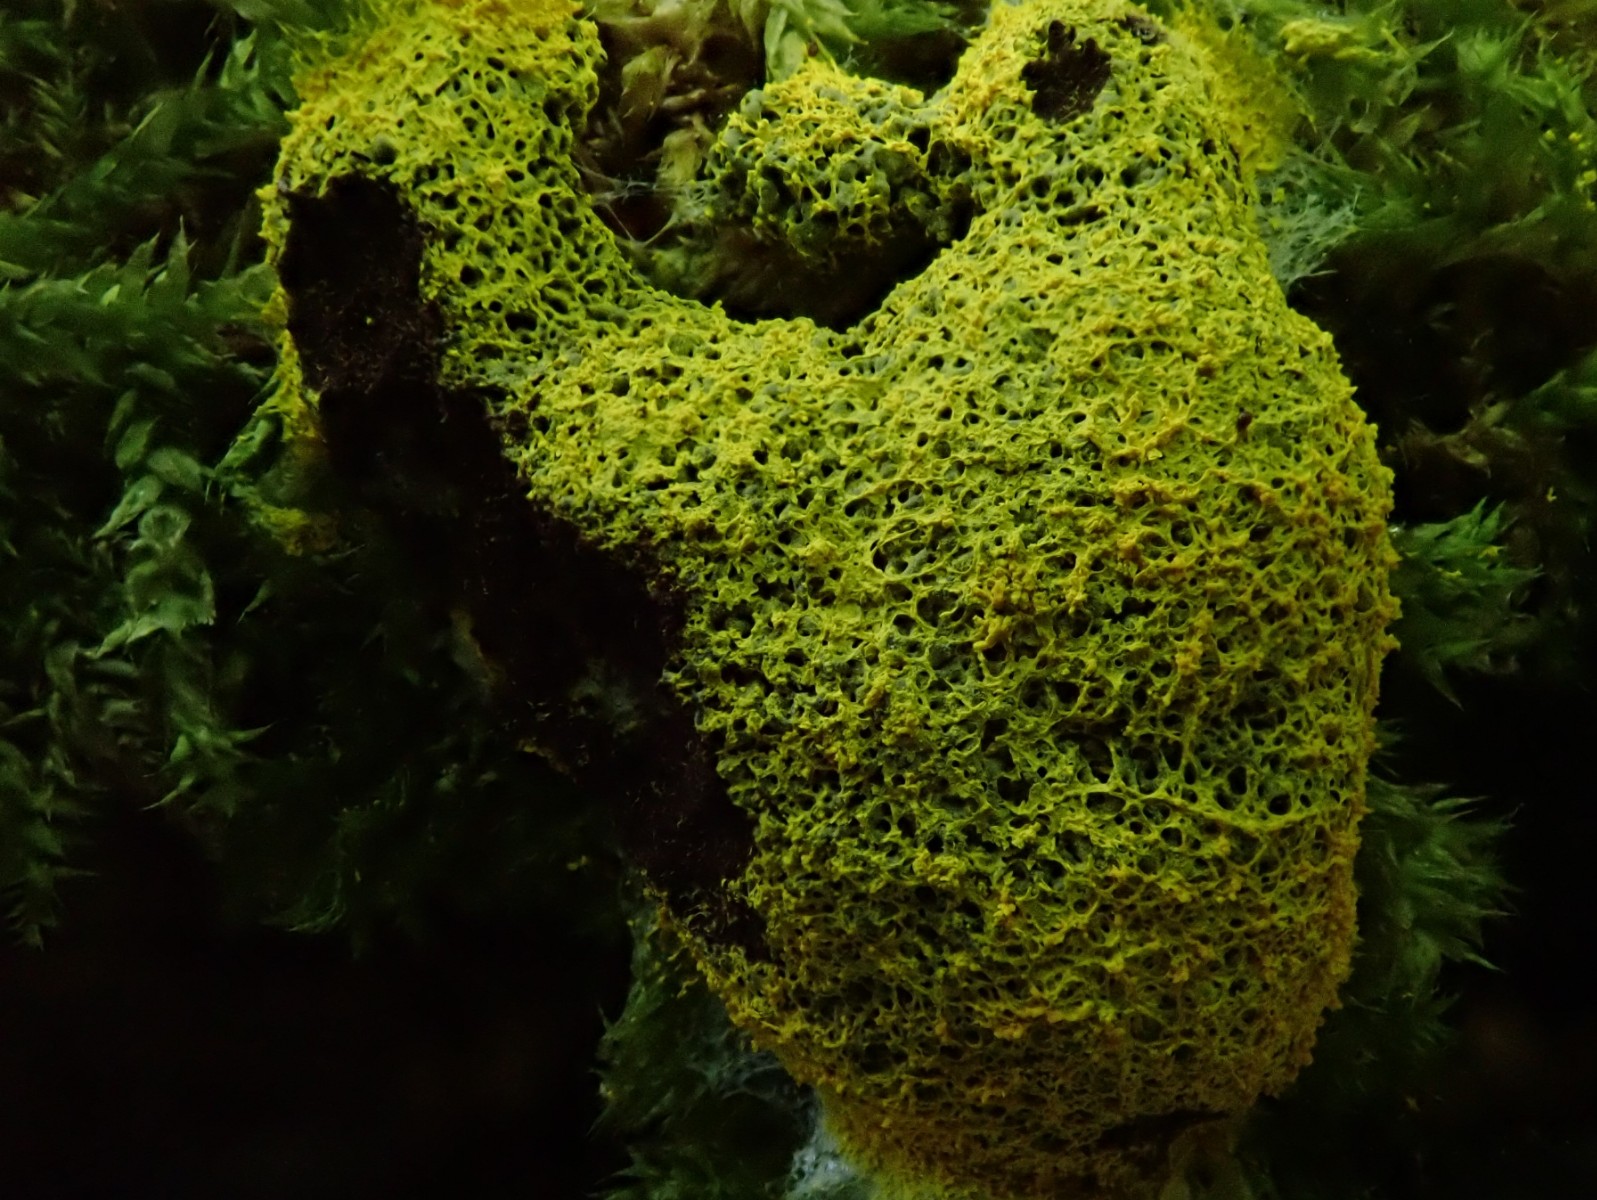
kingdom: Protozoa
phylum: Mycetozoa
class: Myxomycetes
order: Physarales
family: Physaraceae
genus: Fuligo
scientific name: Fuligo septica
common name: gul troldsmør
